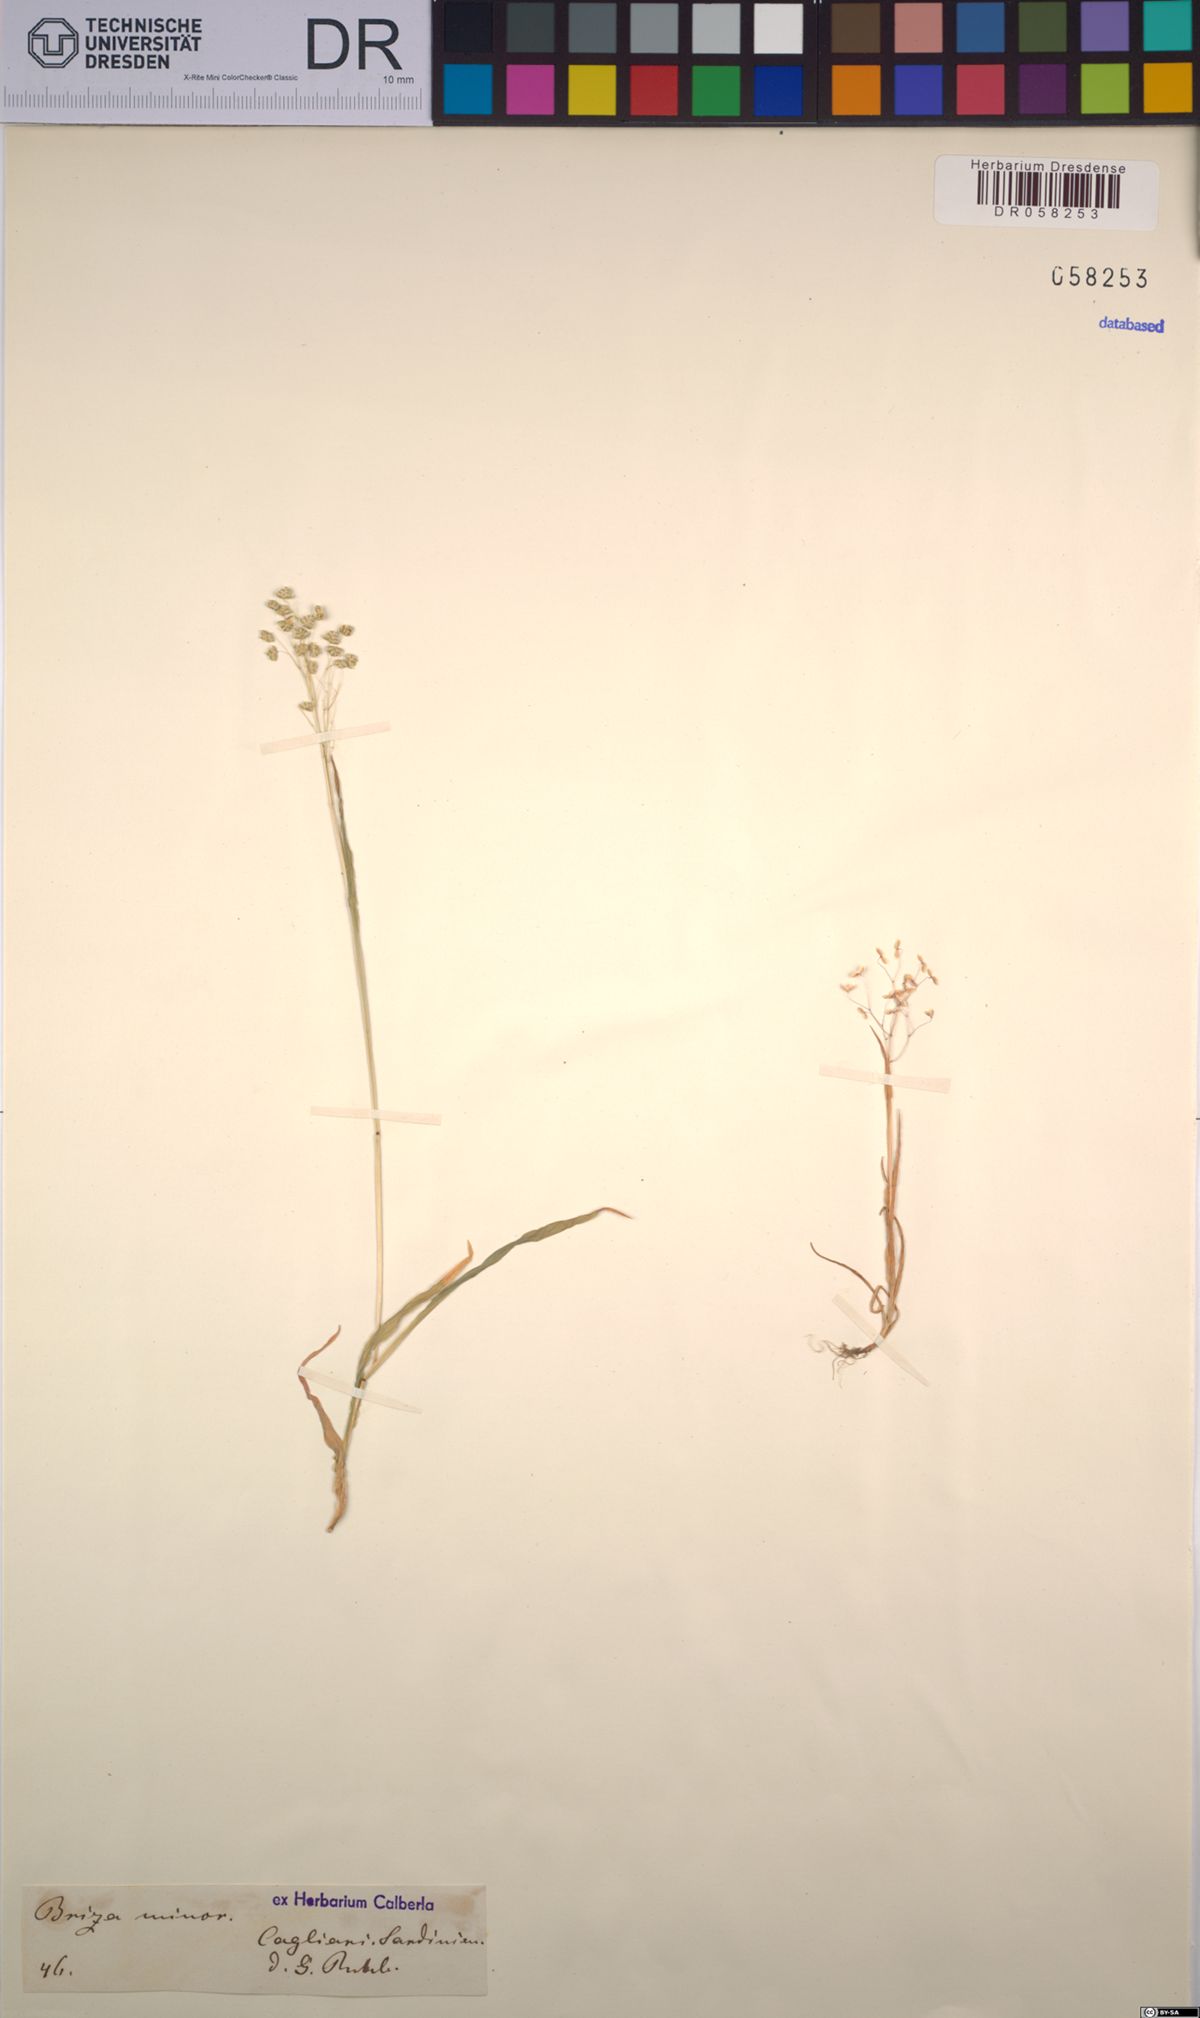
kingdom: Plantae
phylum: Tracheophyta
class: Liliopsida
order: Poales
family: Poaceae
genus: Briza
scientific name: Briza minor
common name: Lesser quaking-grass
